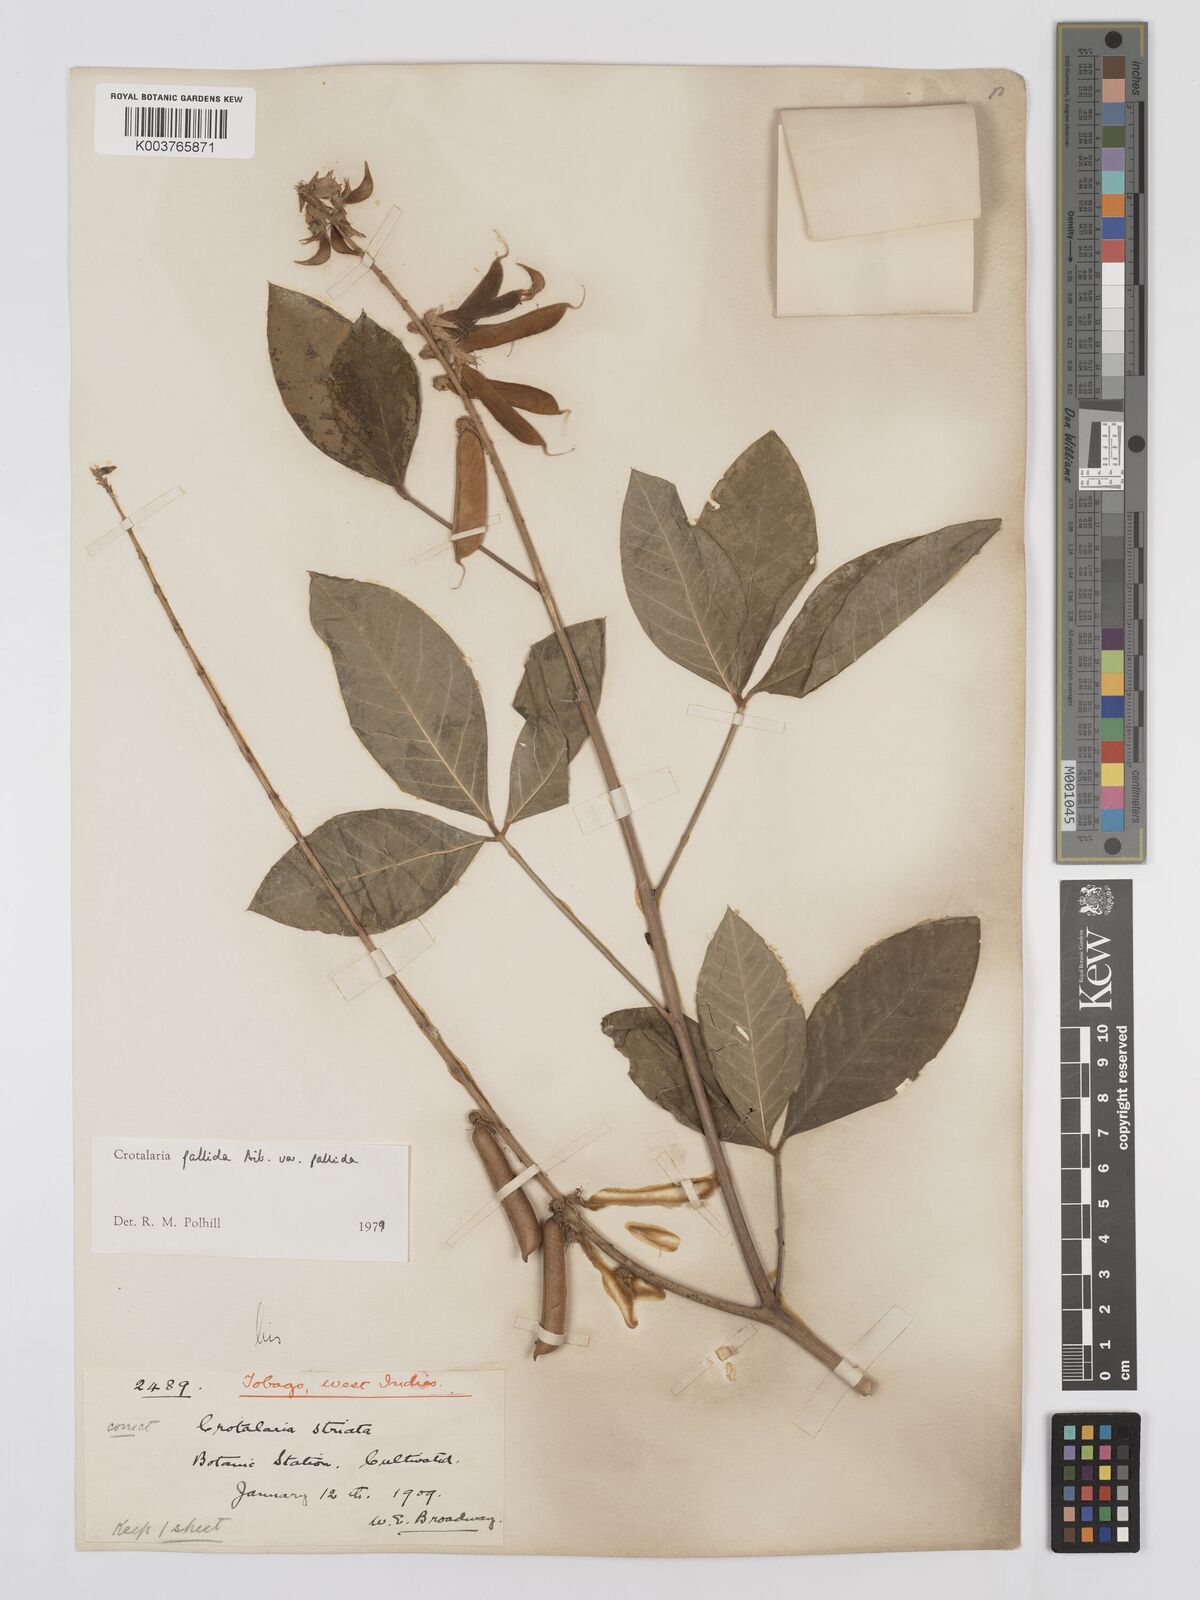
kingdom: Plantae
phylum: Tracheophyta
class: Magnoliopsida
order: Fabales
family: Fabaceae
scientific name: Fabaceae
